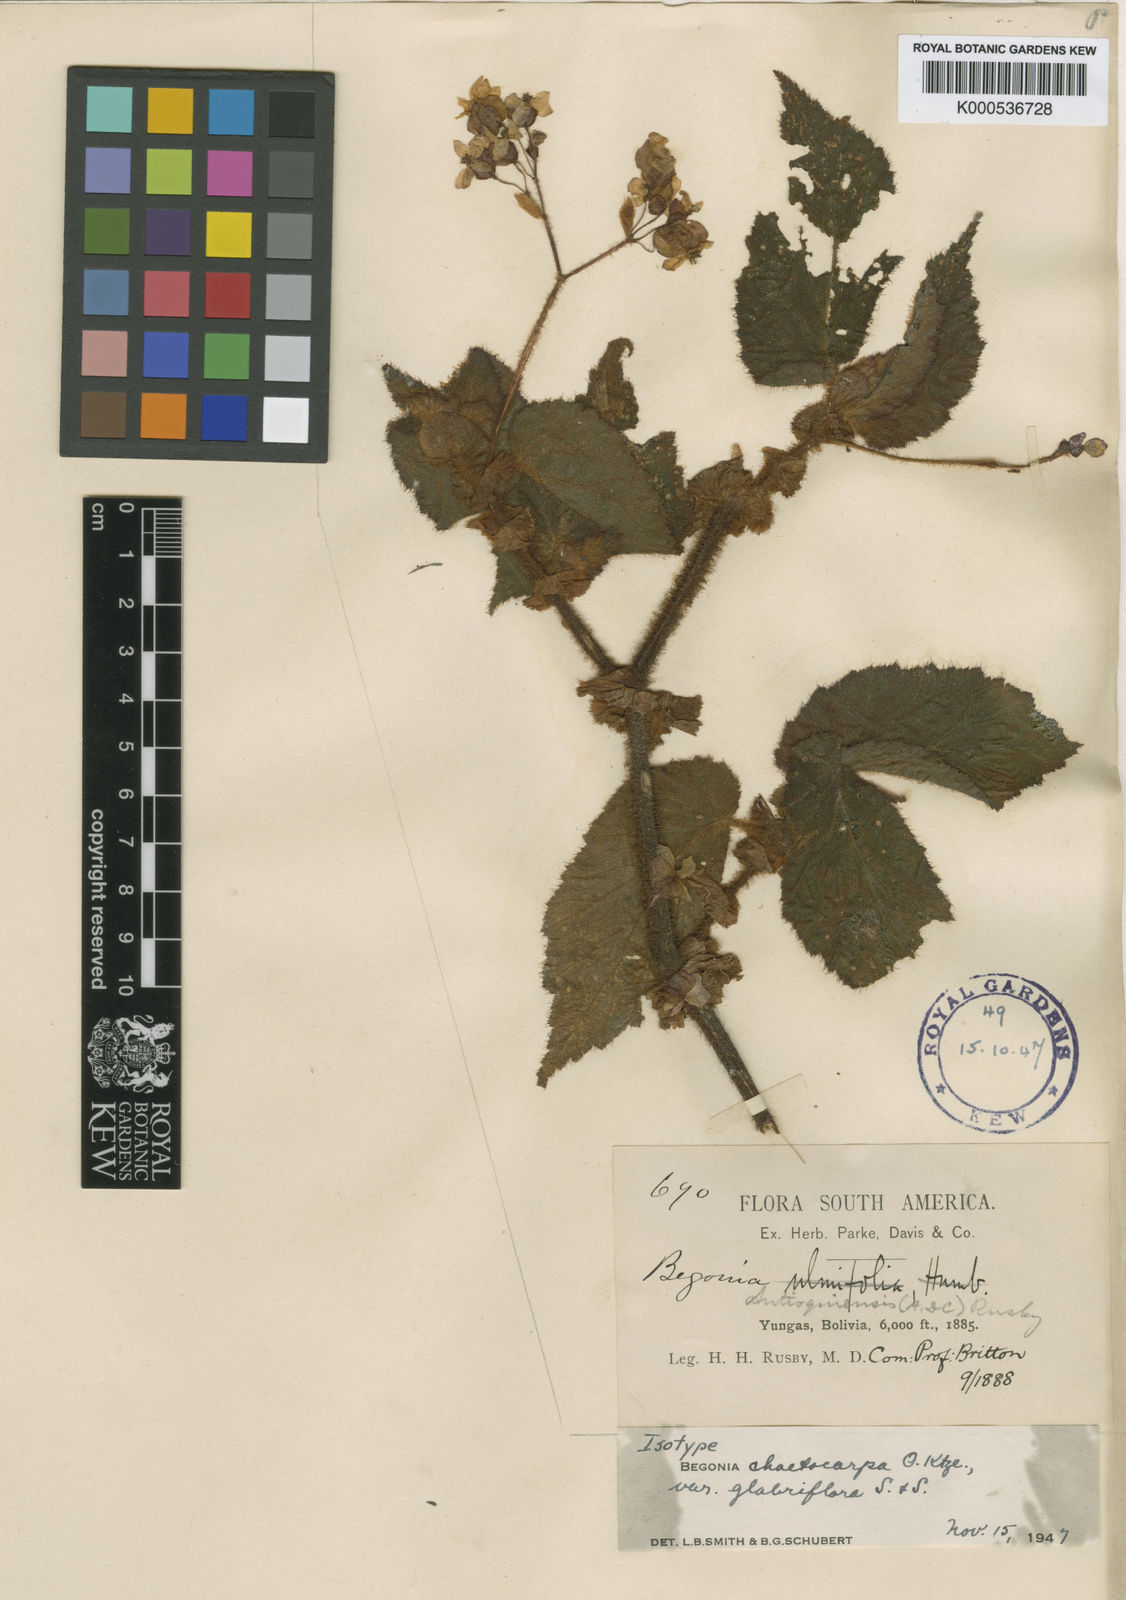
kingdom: Plantae
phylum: Tracheophyta
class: Magnoliopsida
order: Cucurbitales
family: Begoniaceae
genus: Begonia
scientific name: Begonia chaetocarpa
